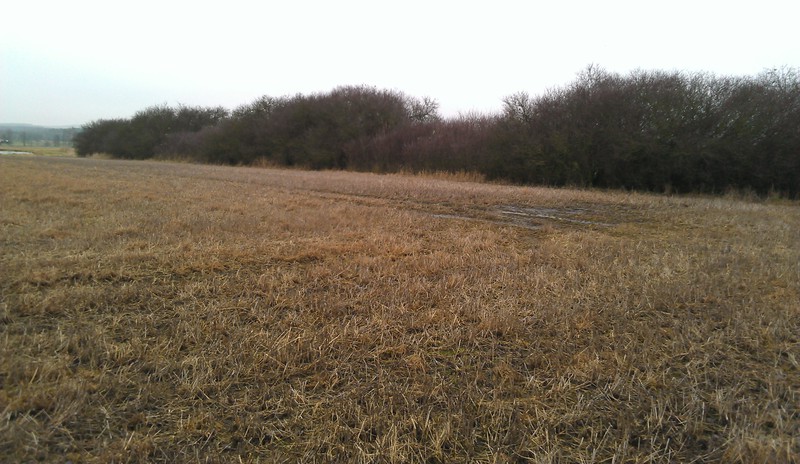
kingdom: Fungi
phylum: Basidiomycota
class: Agaricomycetes
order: Corticiales
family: Corticiaceae
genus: Erythricium
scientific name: Erythricium aurantiacum
